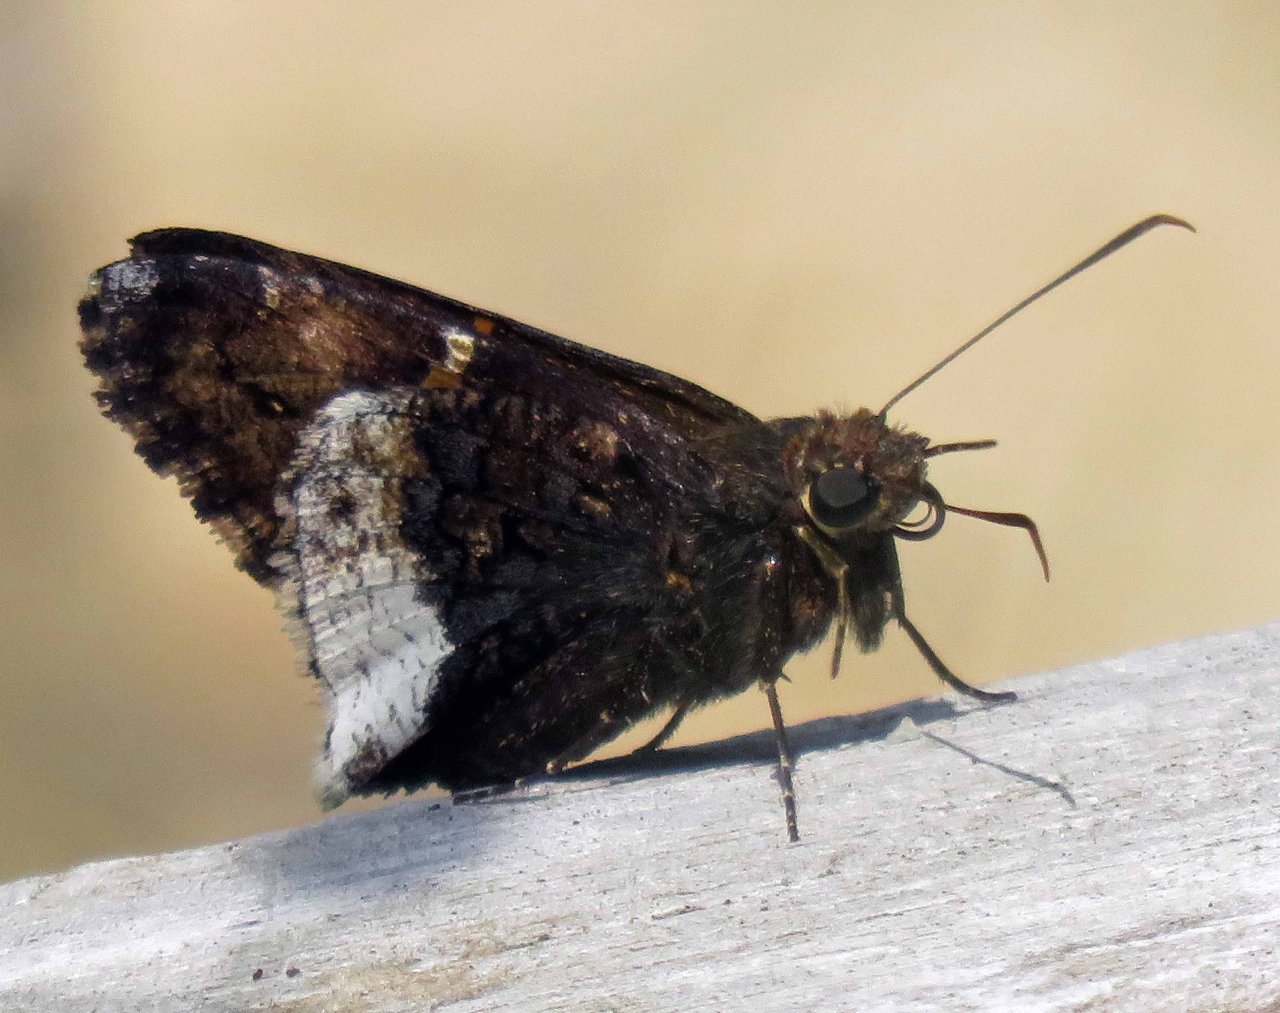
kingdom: Animalia
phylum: Arthropoda
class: Insecta
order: Lepidoptera
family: Hesperiidae
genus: Achalarus
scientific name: Achalarus lyciades
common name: Hoary Edge
